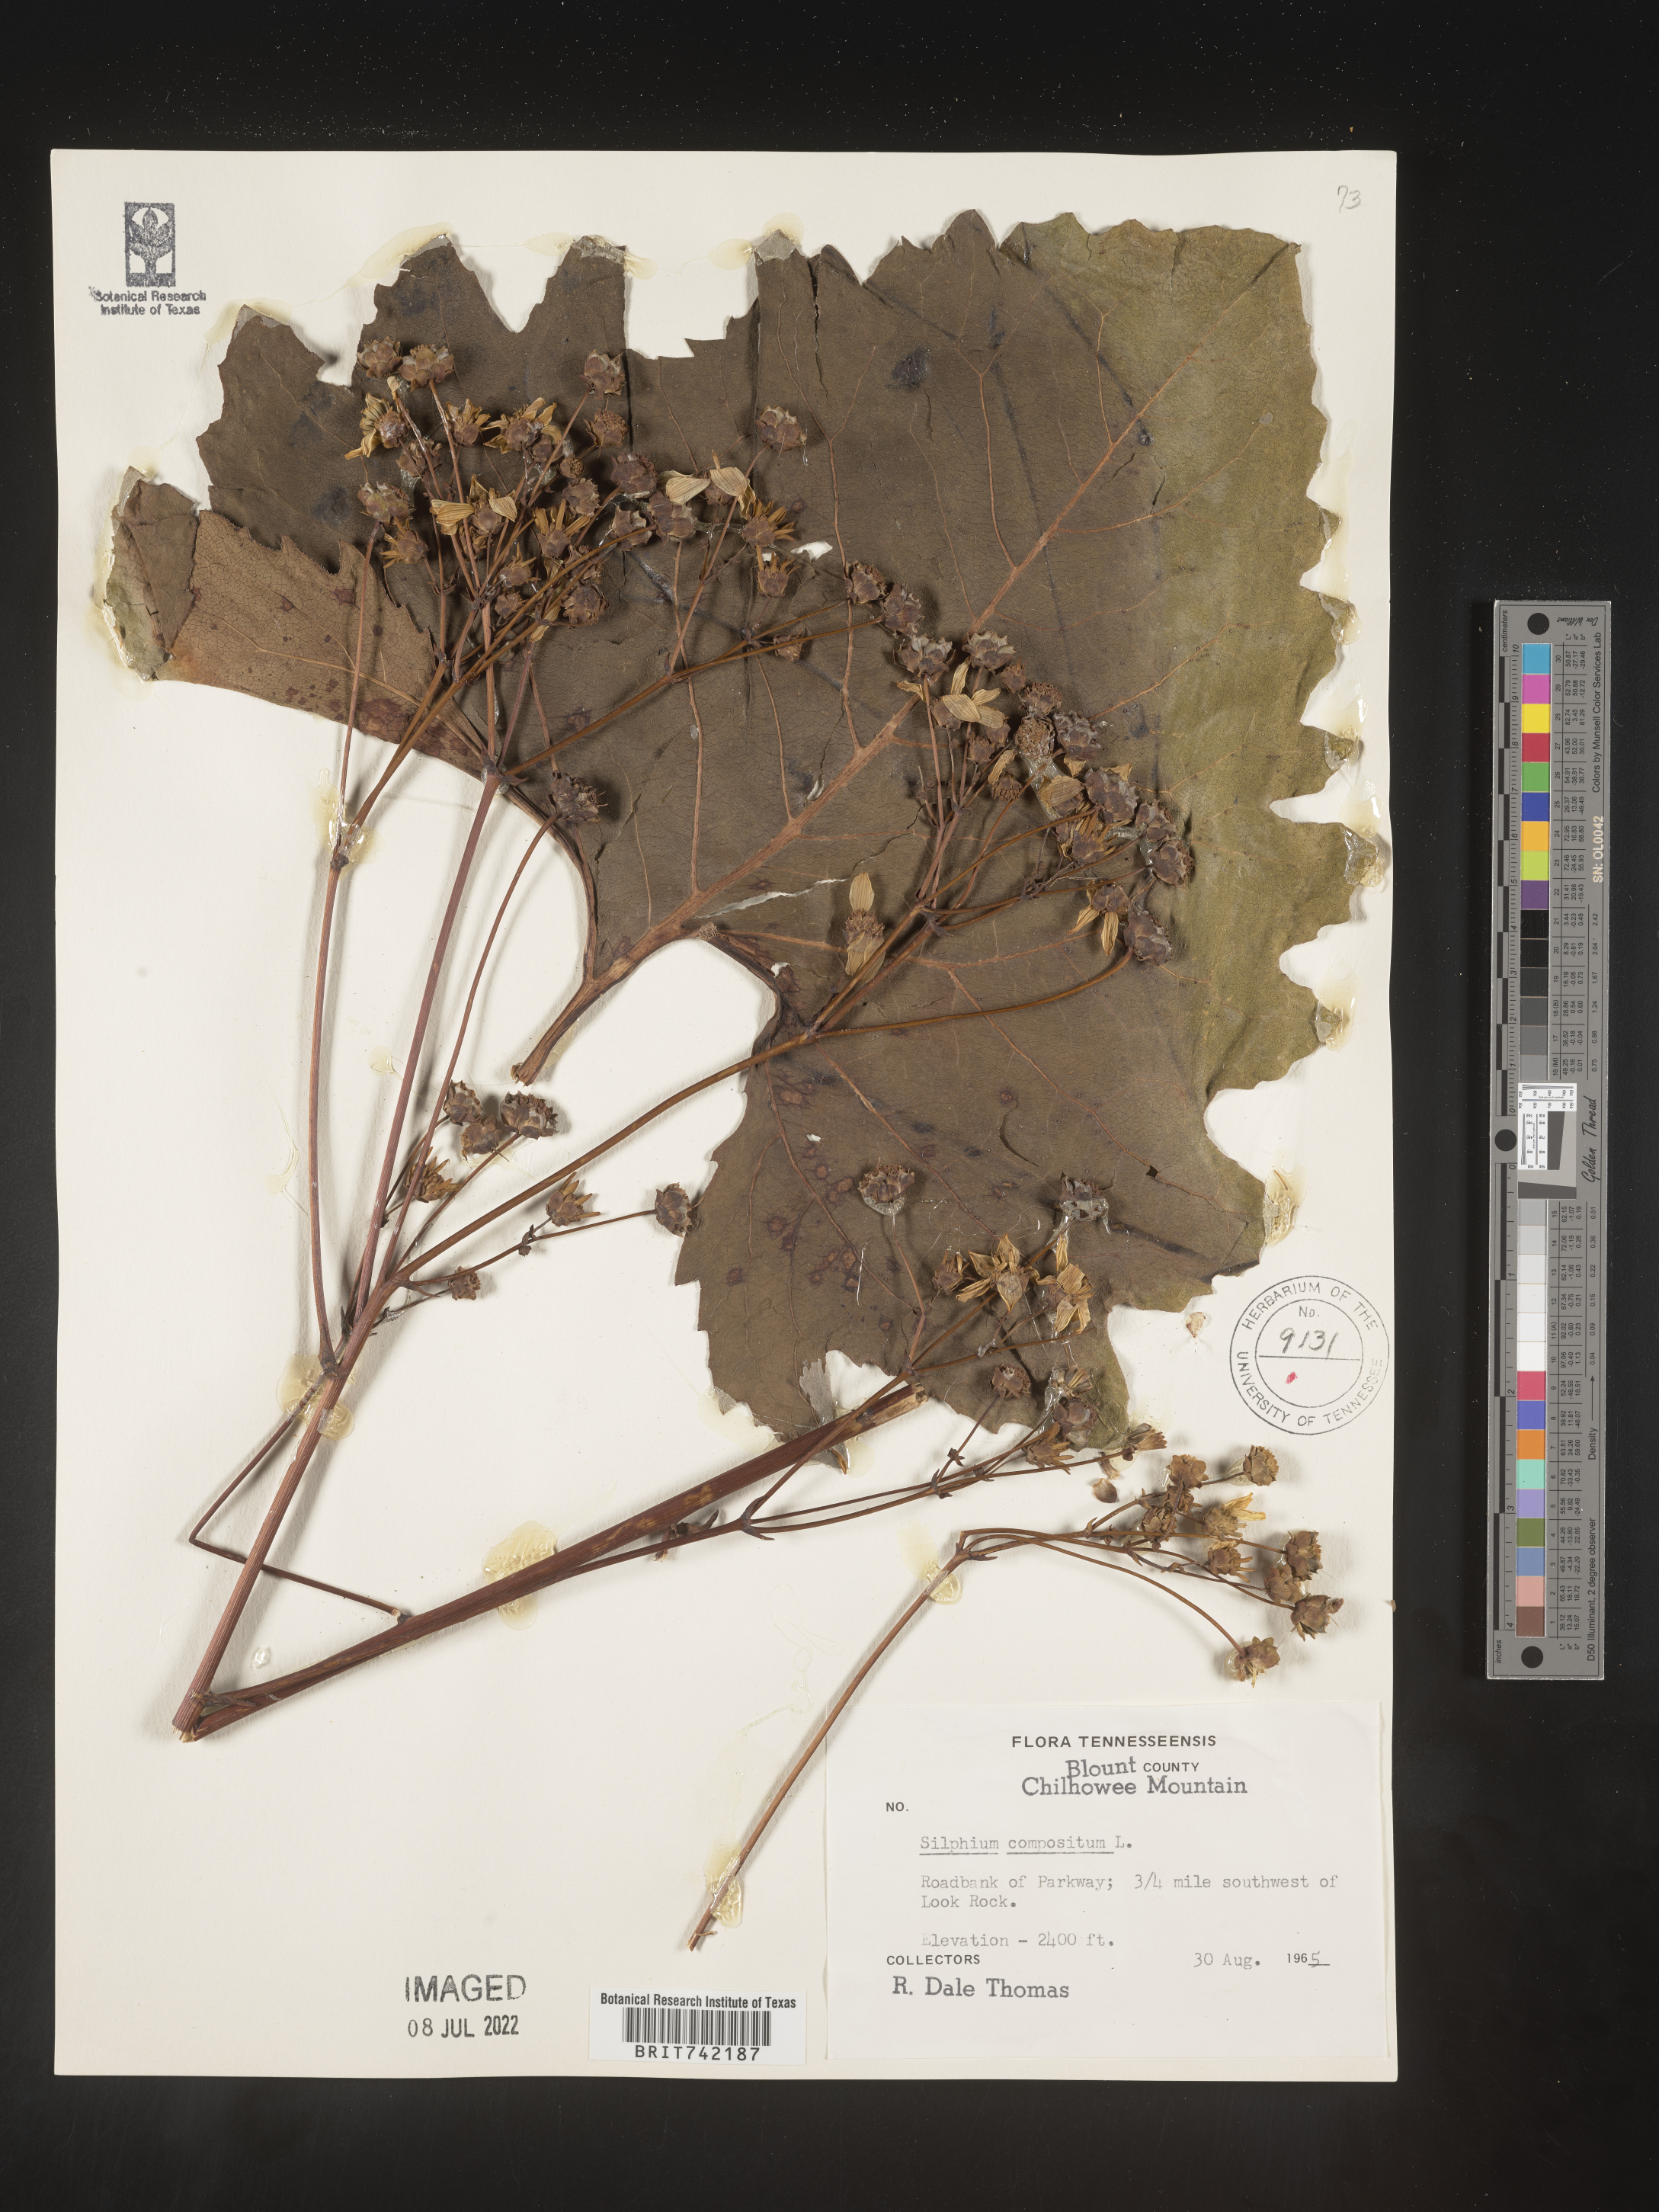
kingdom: Plantae
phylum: Tracheophyta
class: Magnoliopsida
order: Asterales
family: Asteraceae
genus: Silphium
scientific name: Silphium compositum
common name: Lesser basal-leaf rosinweed
